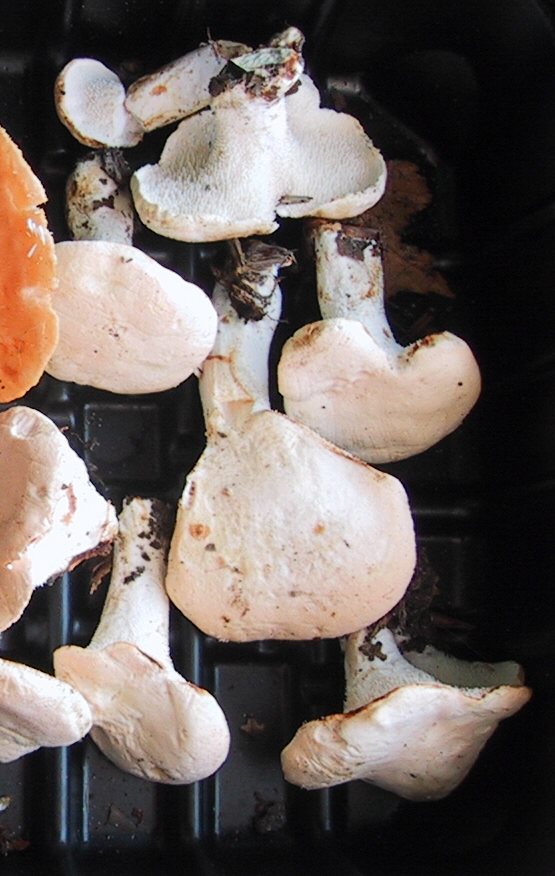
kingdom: Fungi
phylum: Basidiomycota
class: Agaricomycetes
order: Cantharellales
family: Hydnaceae
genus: Hydnum
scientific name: Hydnum repandum
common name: almindelig pigsvamp
